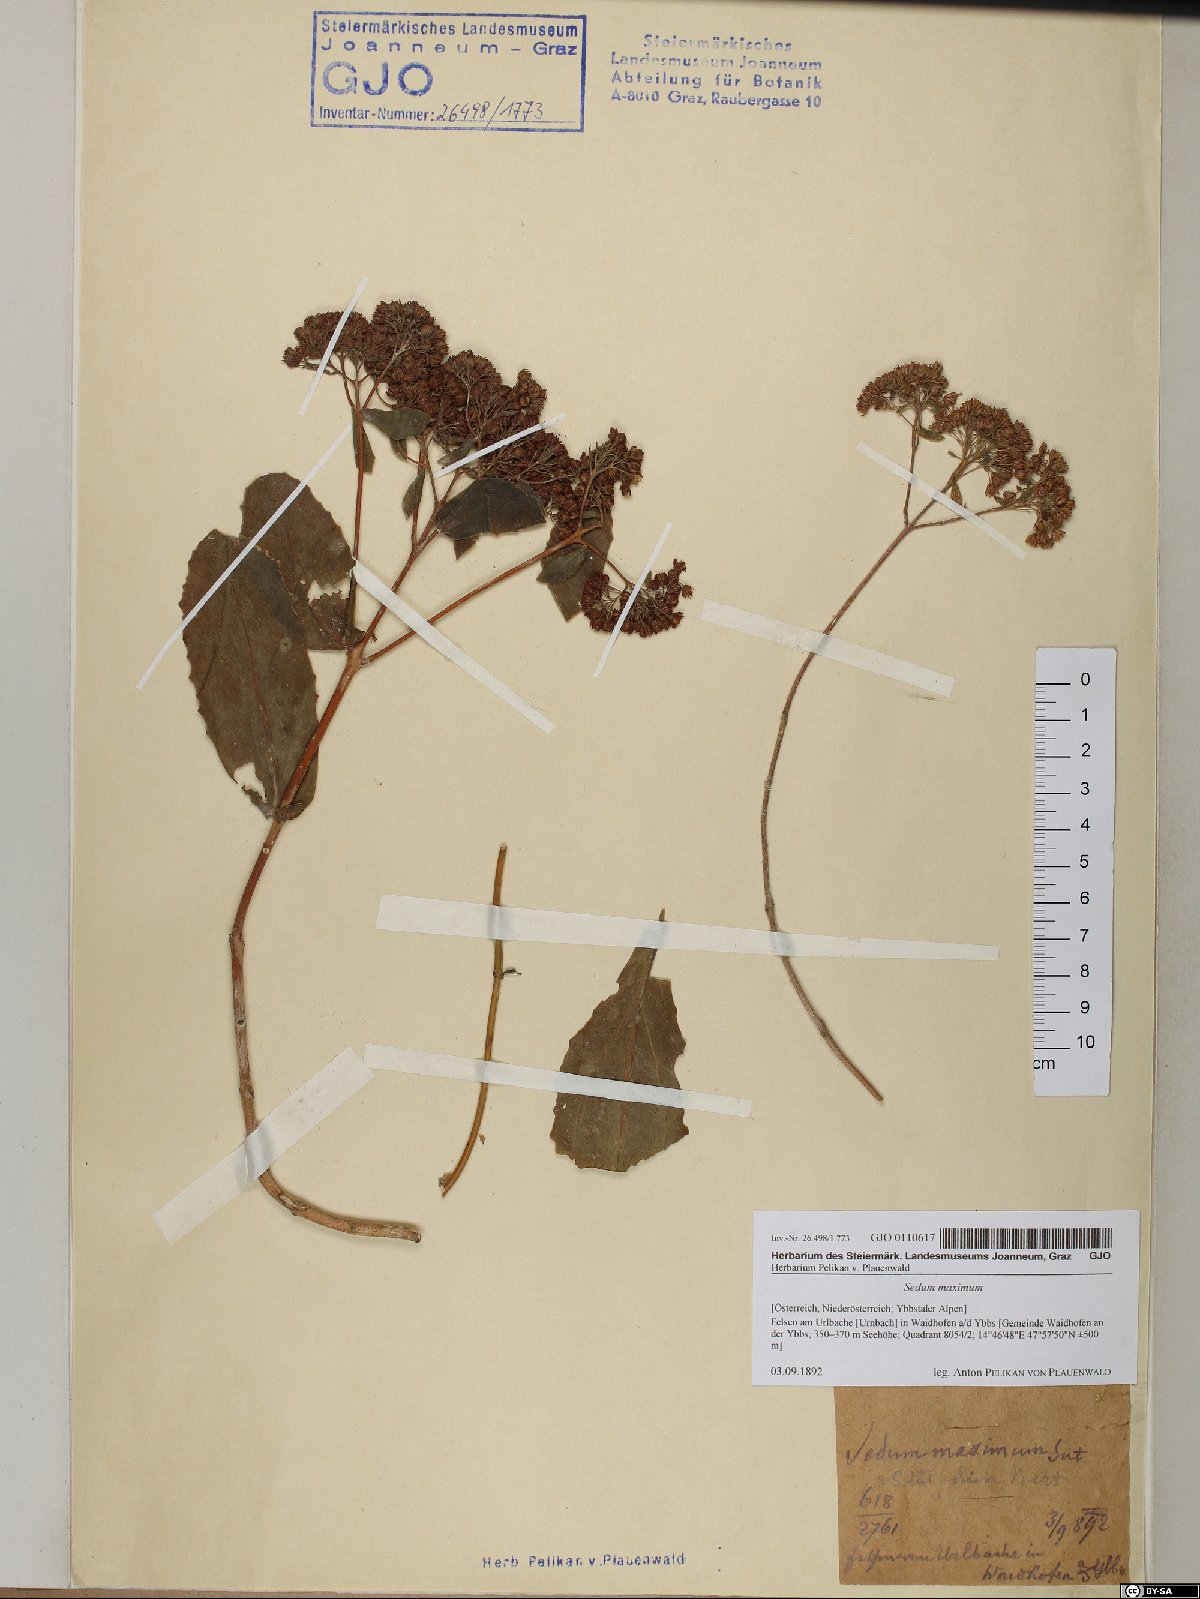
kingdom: Plantae
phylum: Tracheophyta
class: Magnoliopsida
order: Saxifragales
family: Crassulaceae
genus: Hylotelephium
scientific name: Hylotelephium maximum
